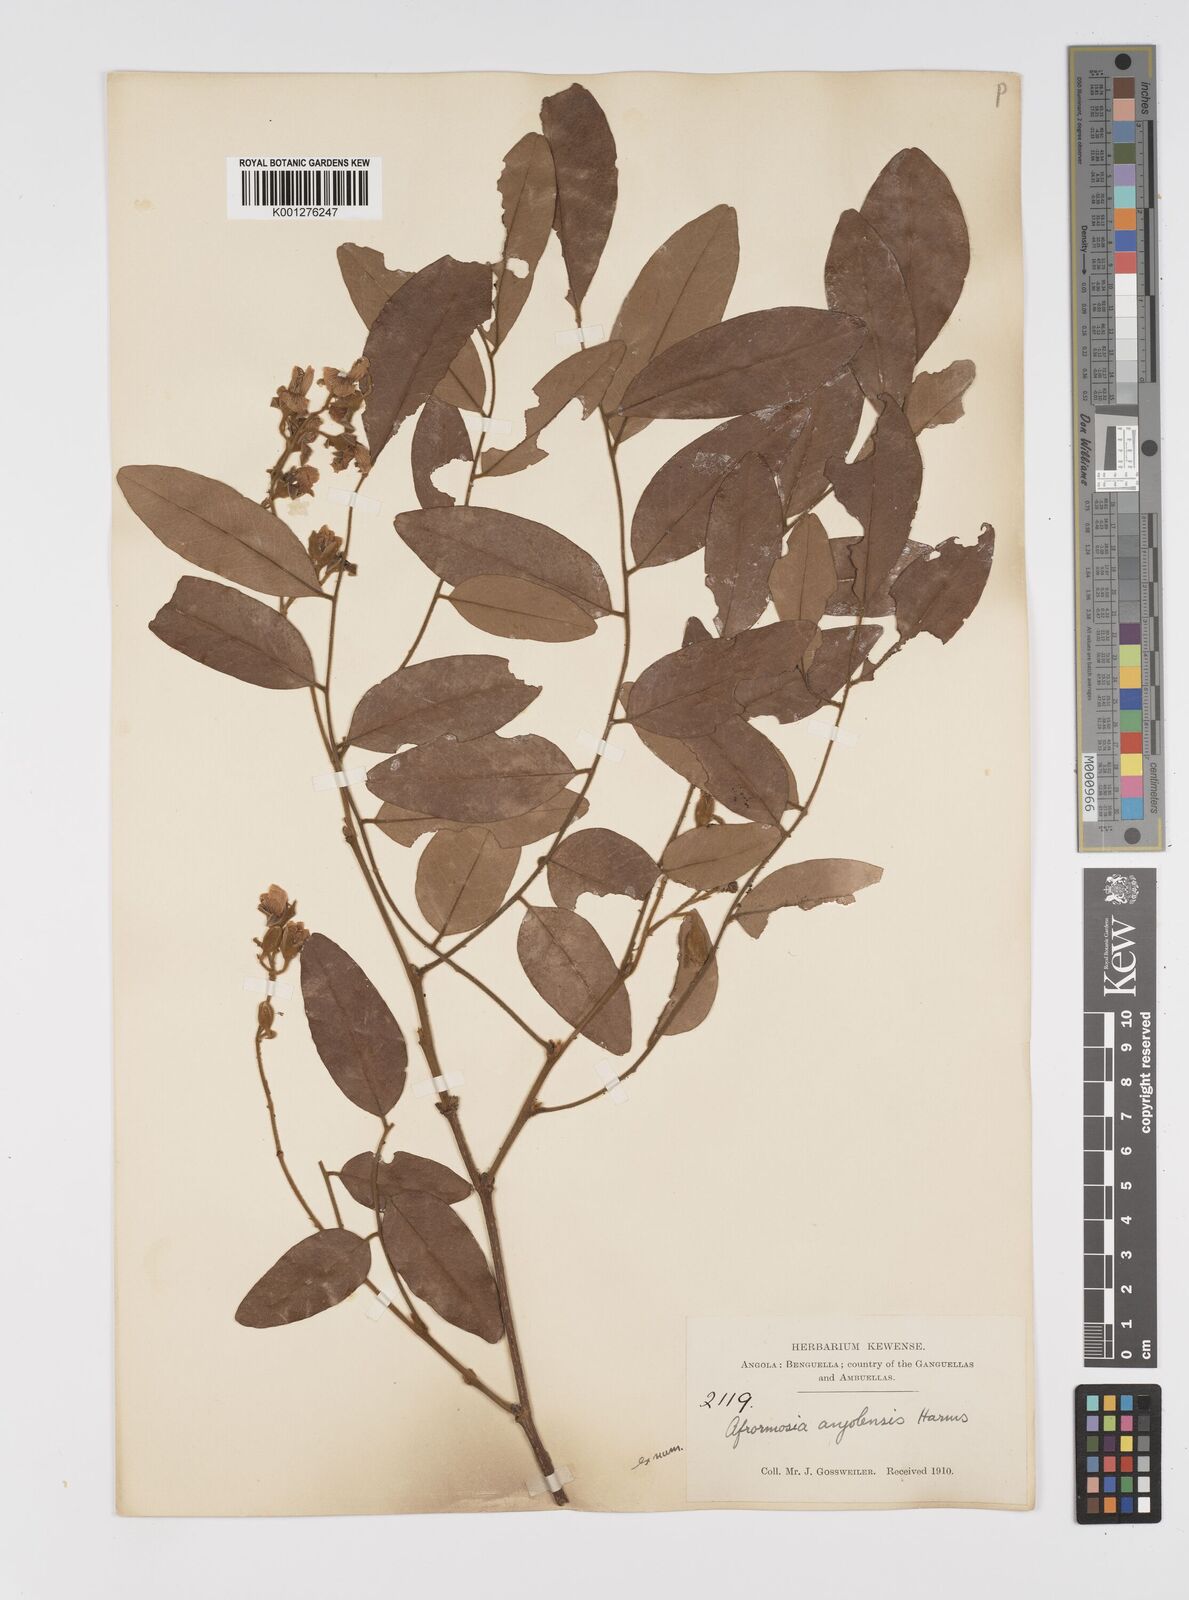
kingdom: Plantae
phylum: Tracheophyta
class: Magnoliopsida
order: Fabales
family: Fabaceae
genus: Pericopsis
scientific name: Pericopsis angolensis
